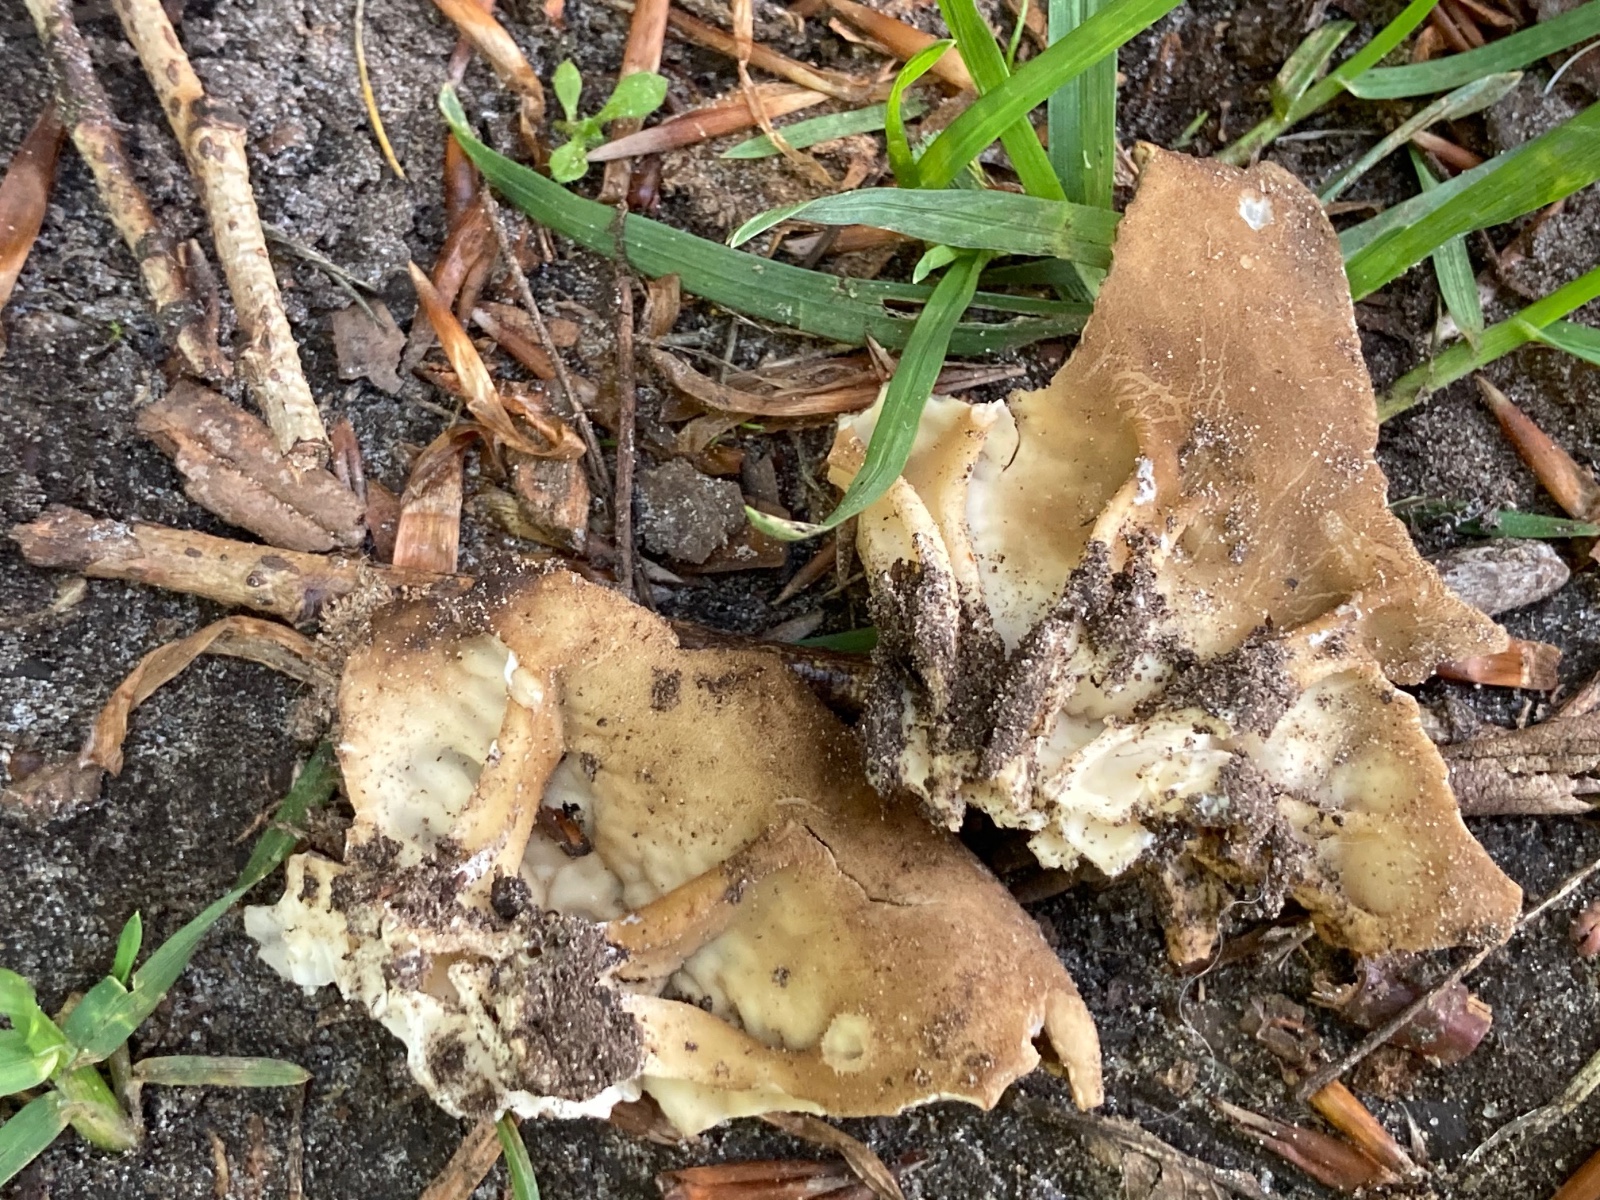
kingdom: Fungi
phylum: Ascomycota
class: Pezizomycetes
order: Pezizales
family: Helvellaceae
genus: Helvella
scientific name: Helvella acetabulum
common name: pokal-foldhat
